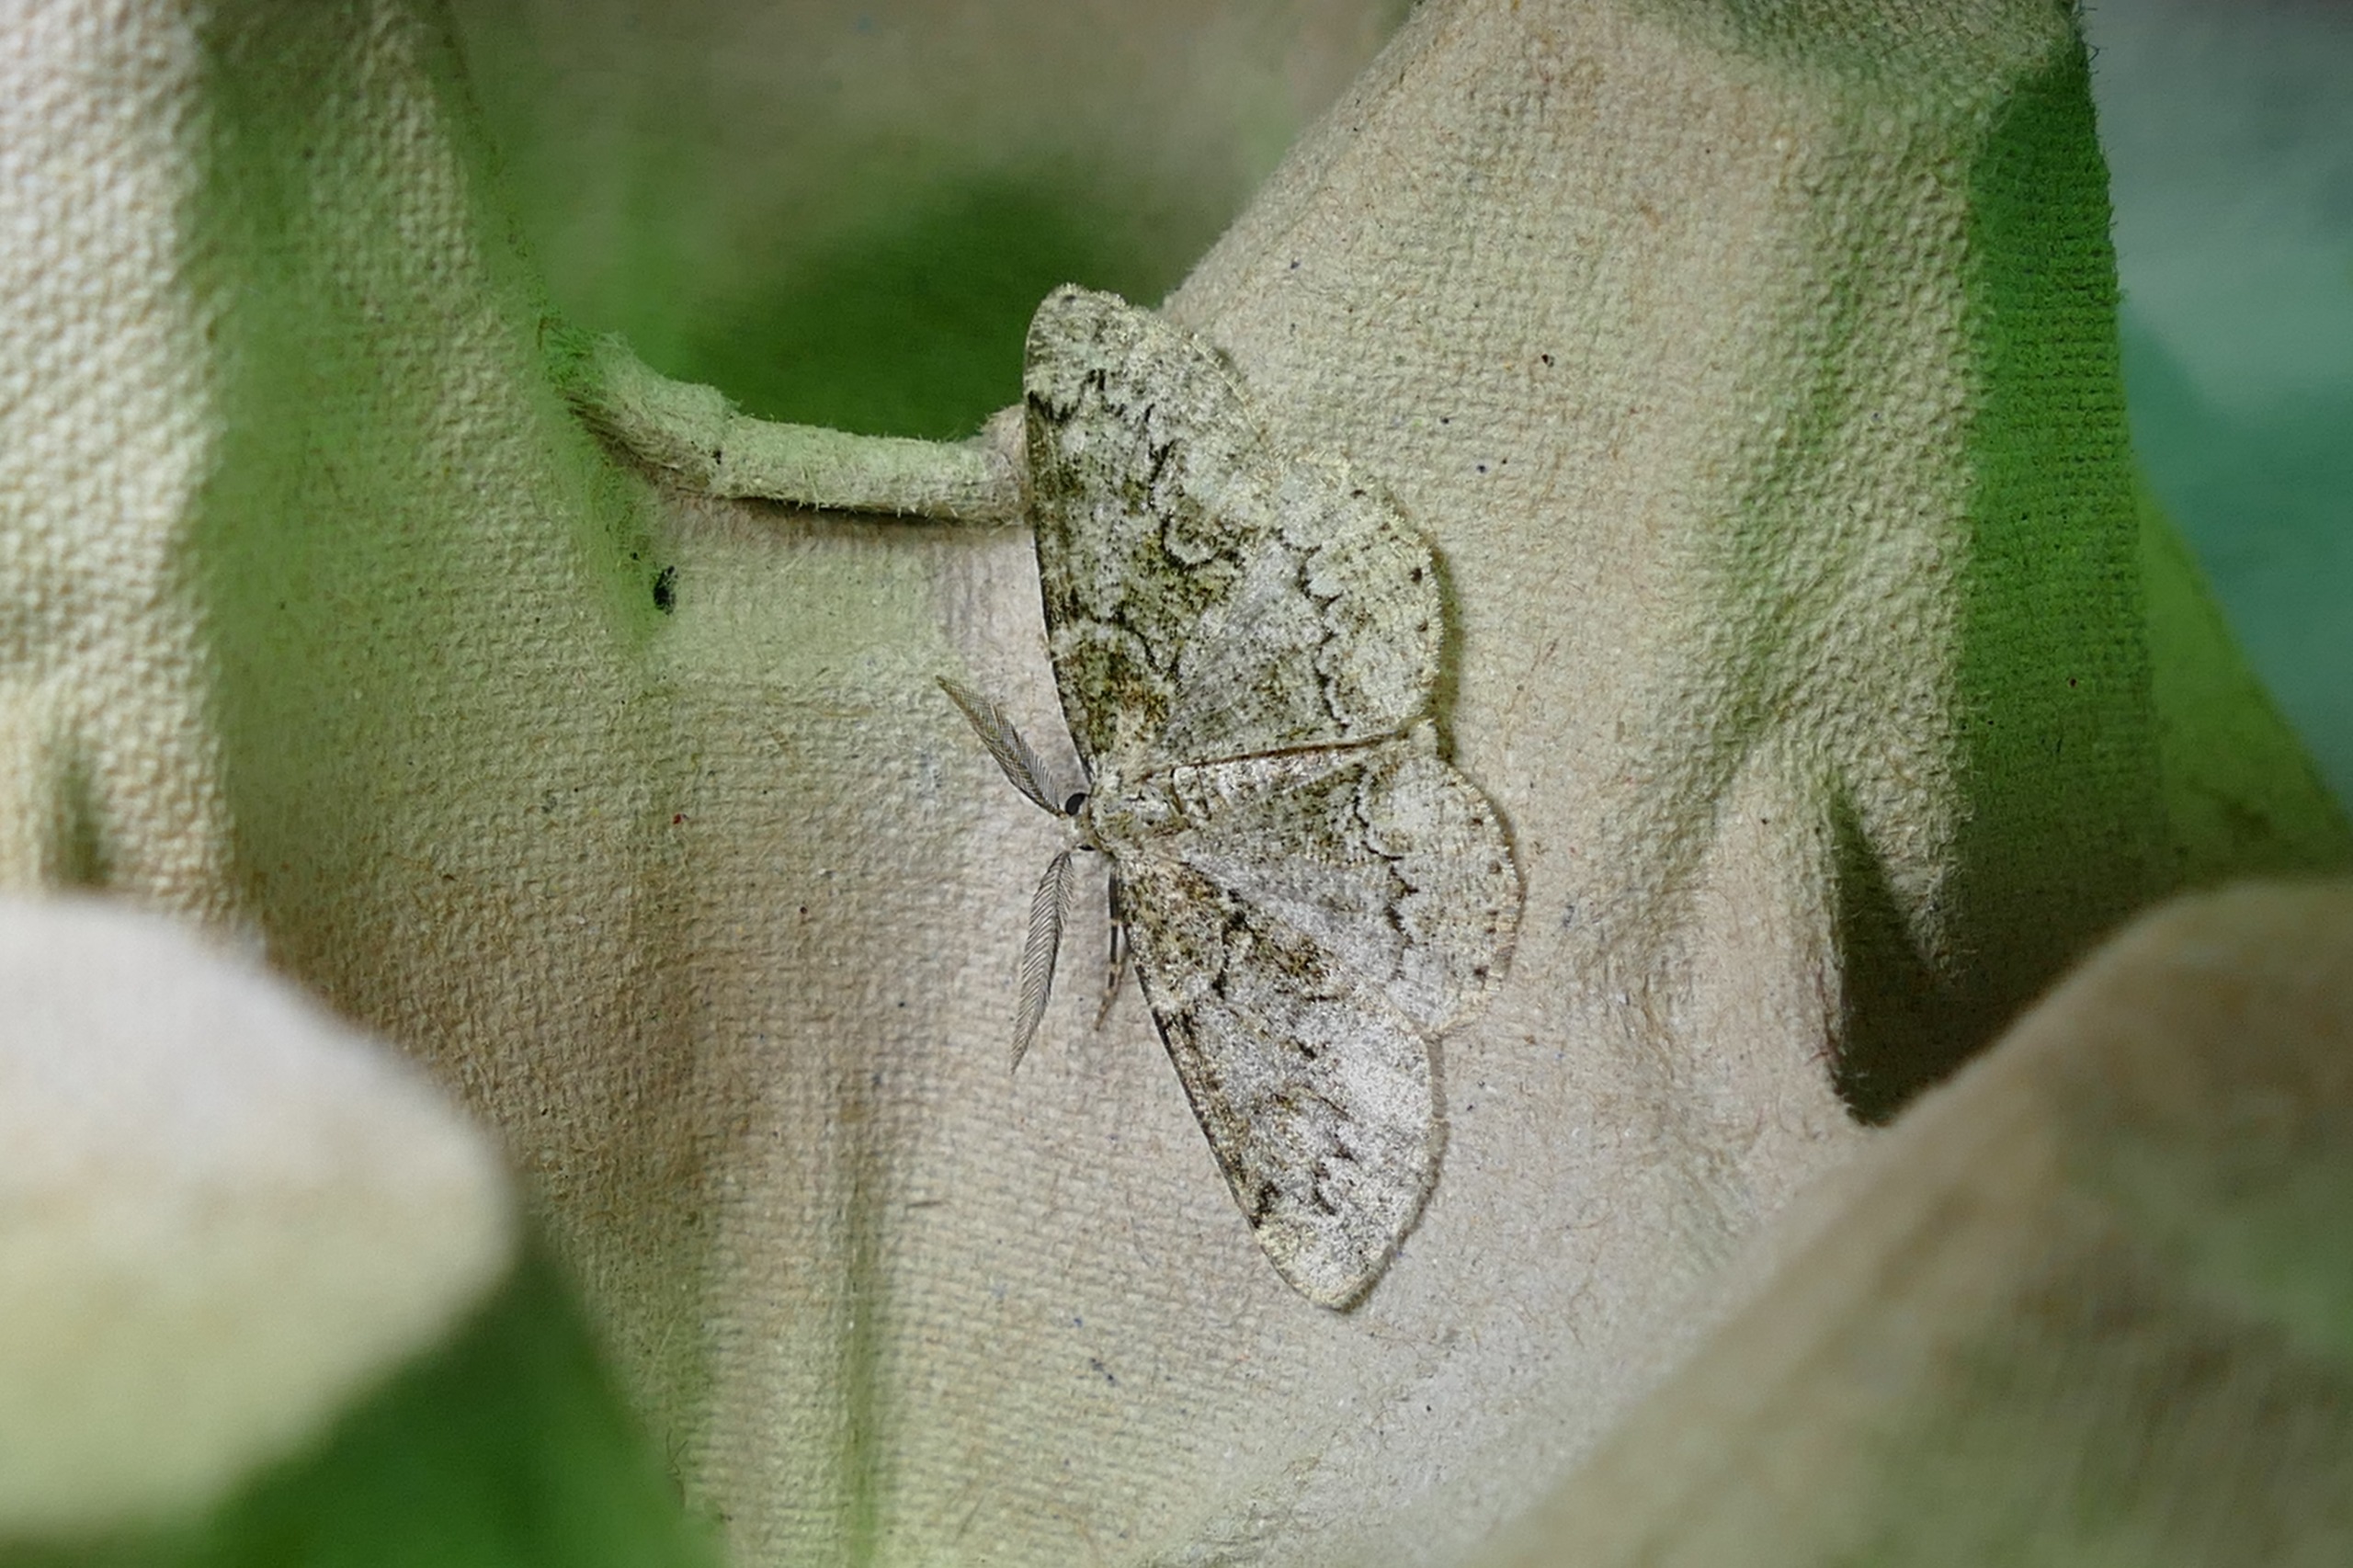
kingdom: Animalia
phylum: Arthropoda
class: Insecta
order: Lepidoptera
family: Geometridae
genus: Cleorodes
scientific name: Cleorodes lichenaria
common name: Lille lavmåler
